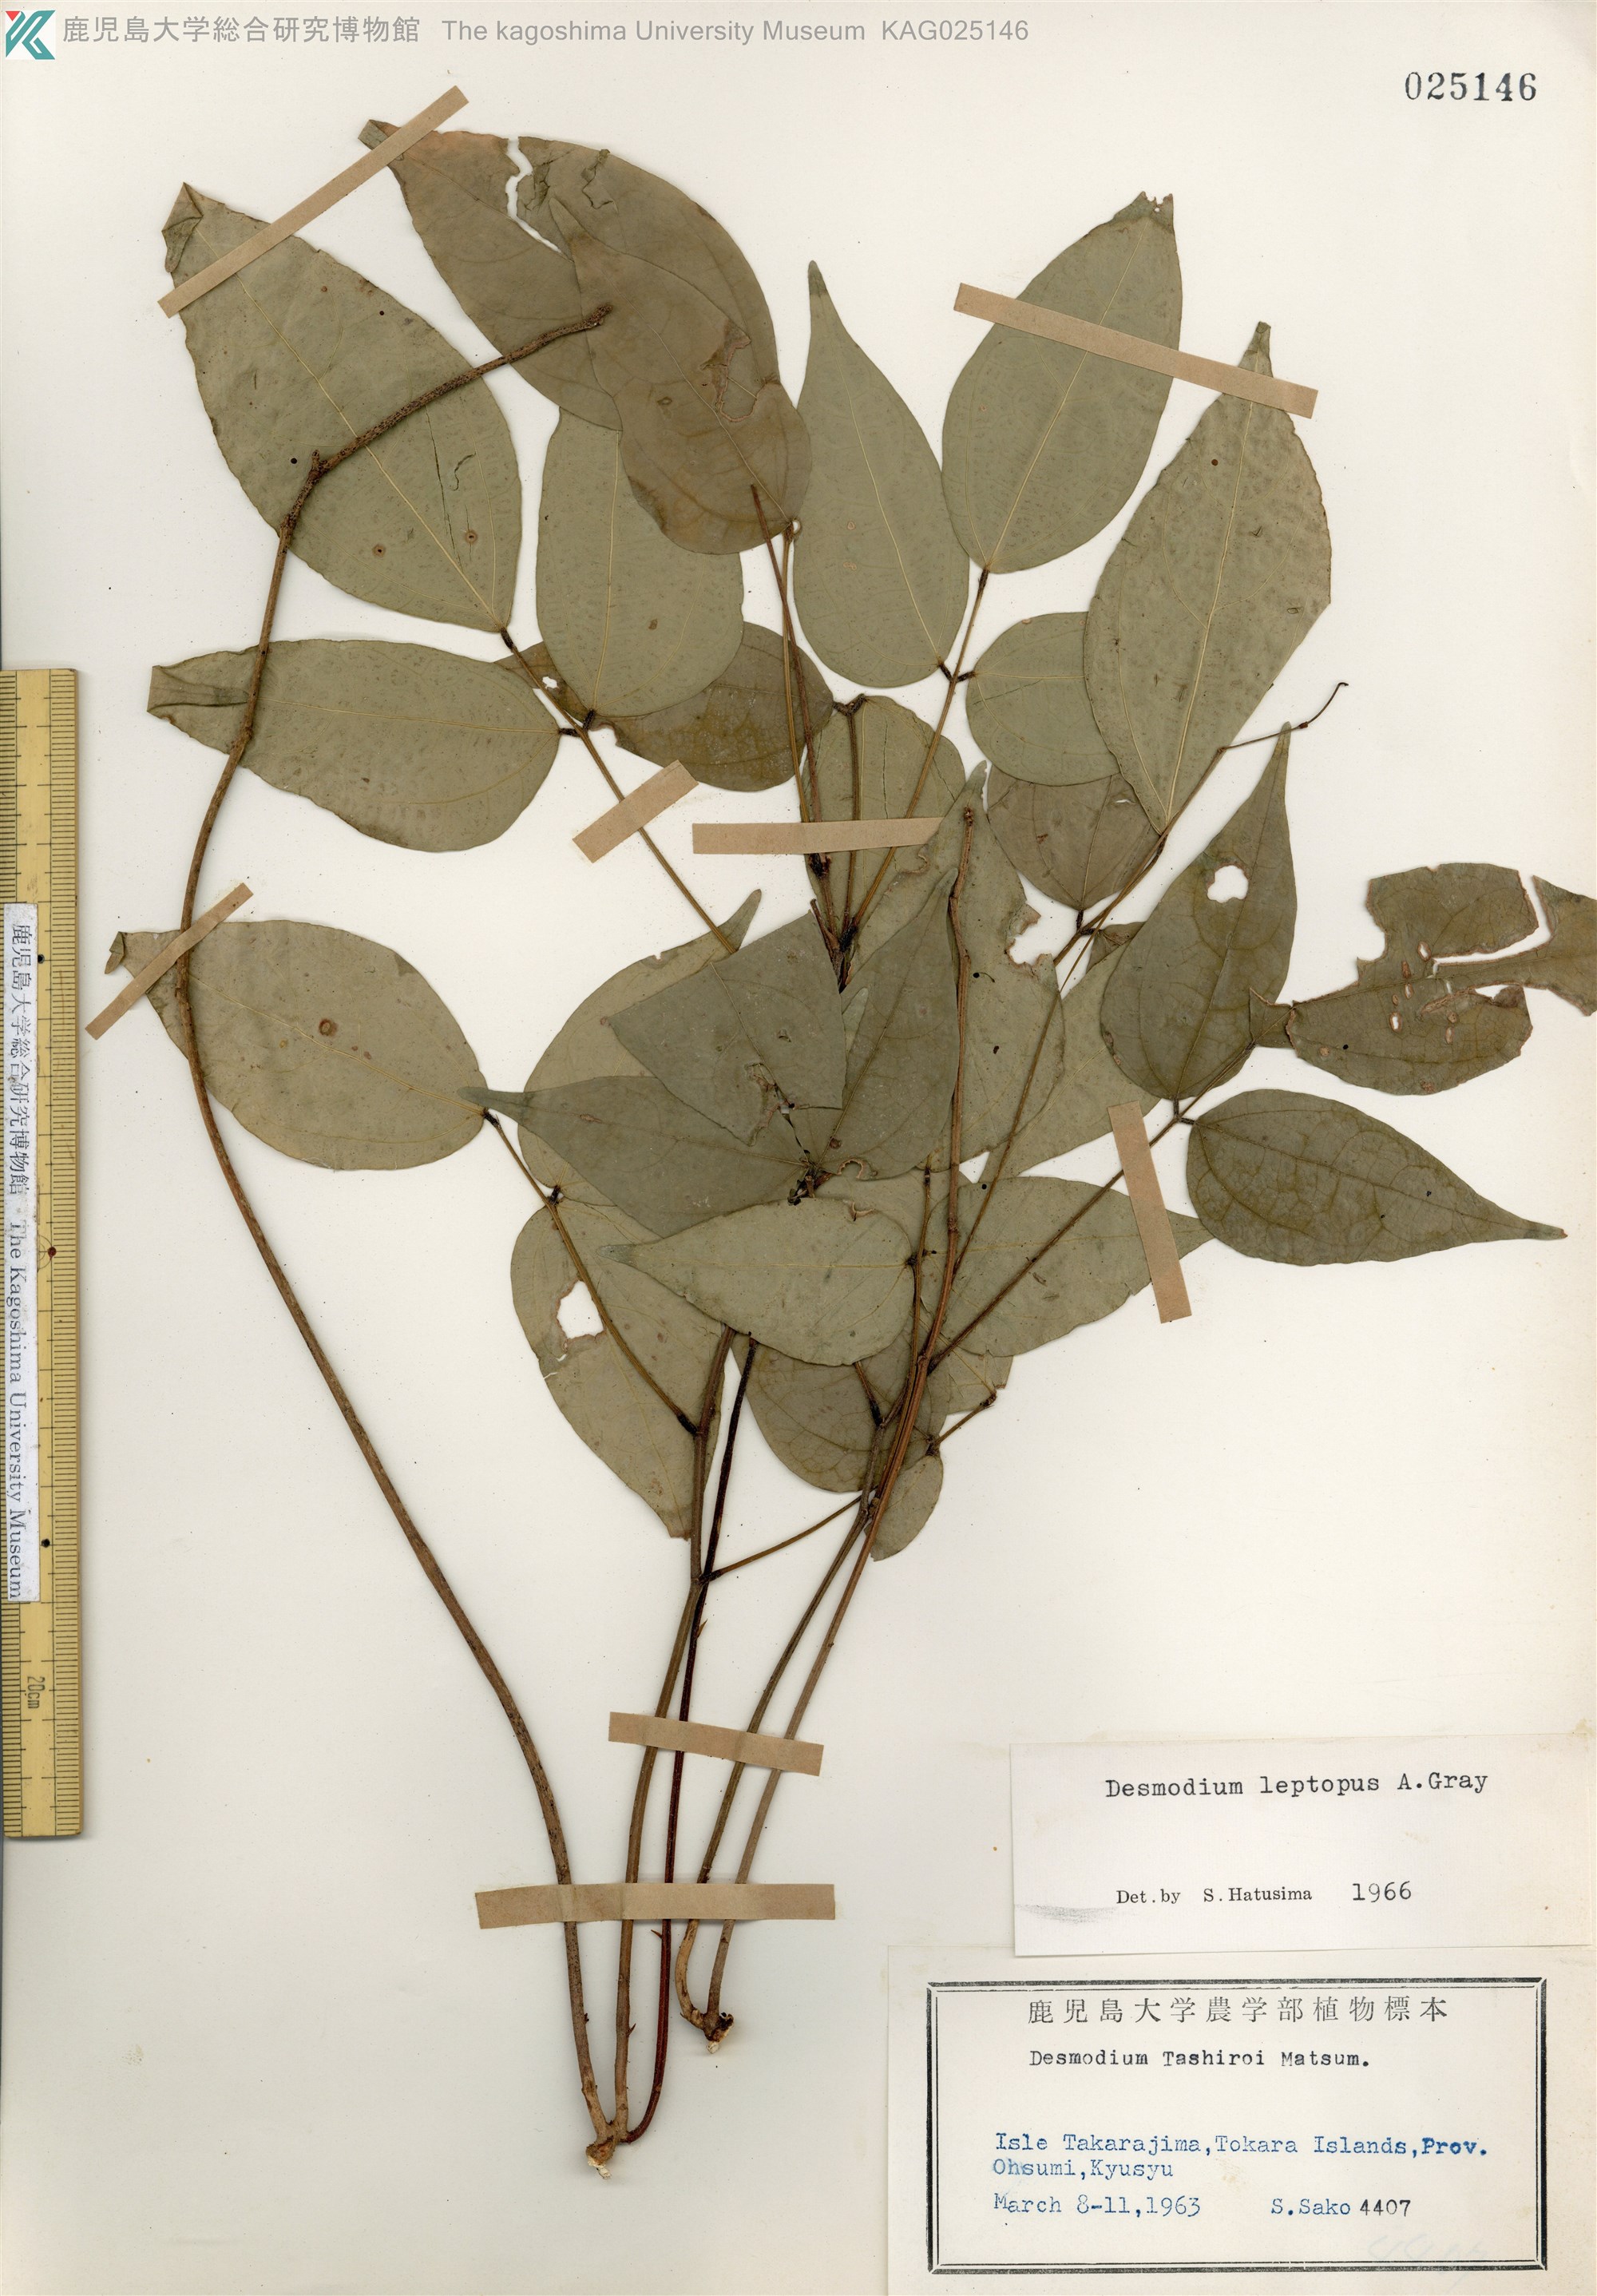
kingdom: Plantae
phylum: Tracheophyta
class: Magnoliopsida
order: Fabales
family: Fabaceae
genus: Hylodesmum
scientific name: Hylodesmum leptopus
